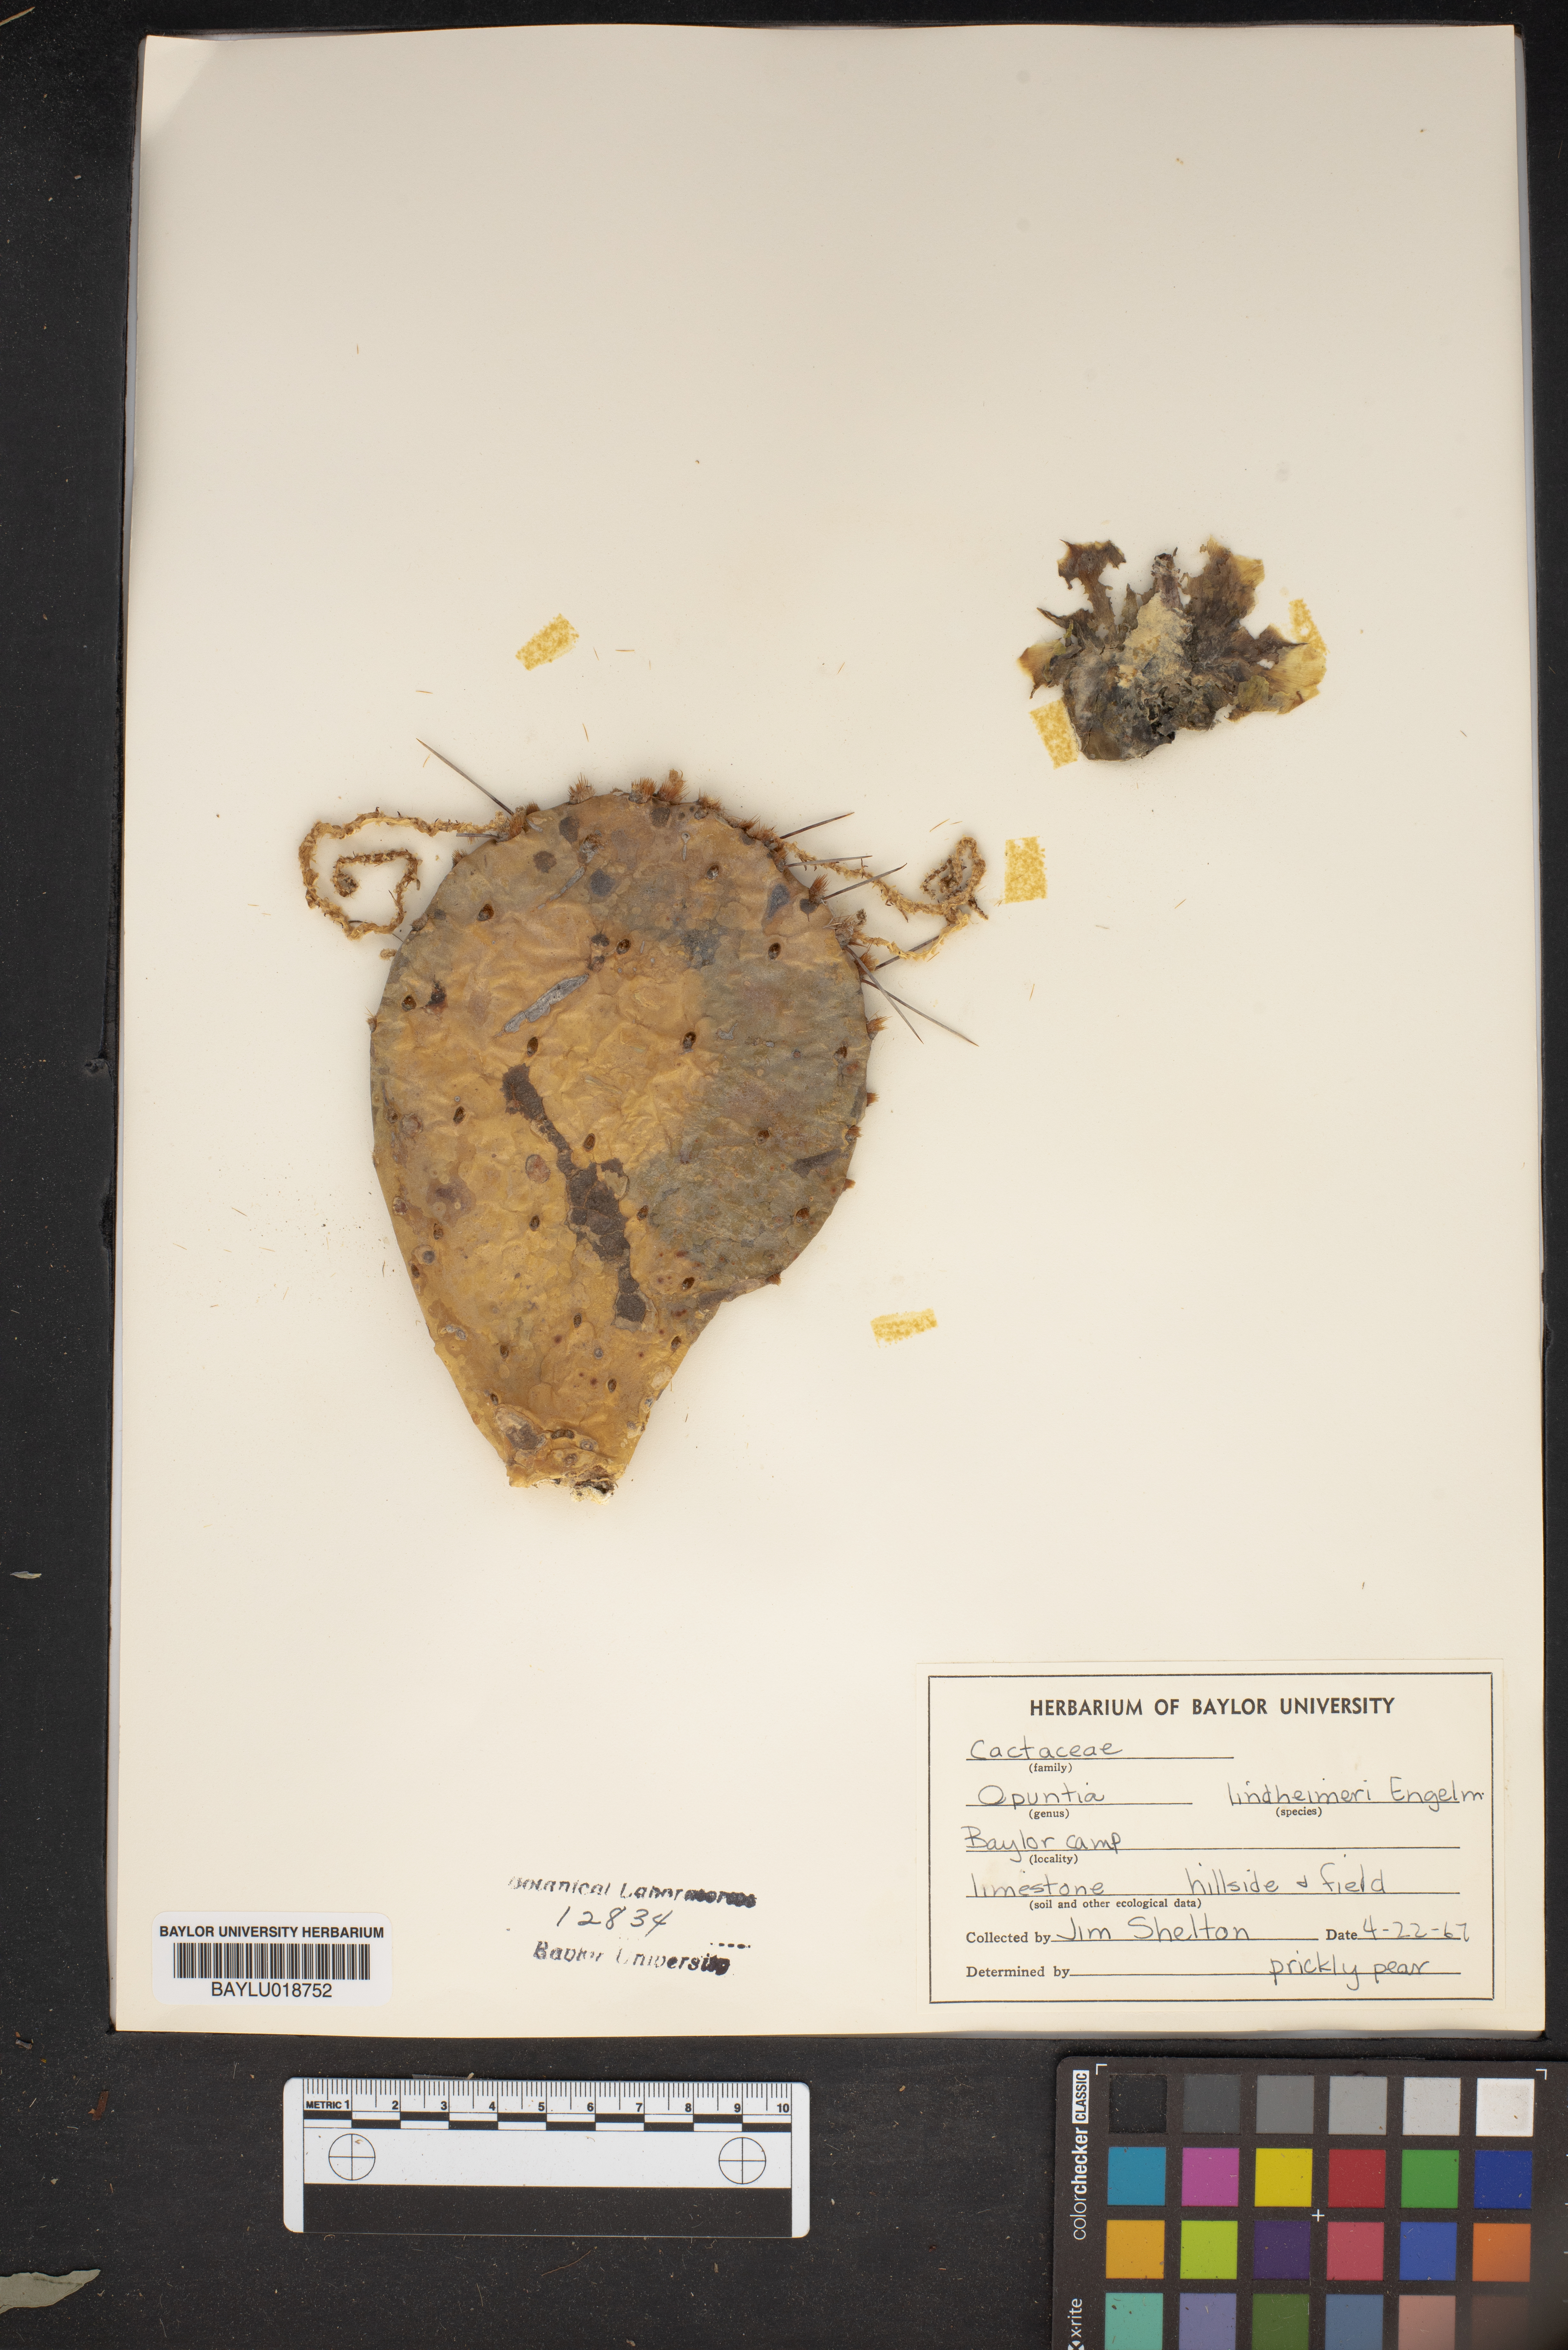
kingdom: Plantae
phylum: Tracheophyta
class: Magnoliopsida
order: Caryophyllales
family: Cactaceae
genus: Opuntia
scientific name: Opuntia engelmannii
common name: Cactus-apple
